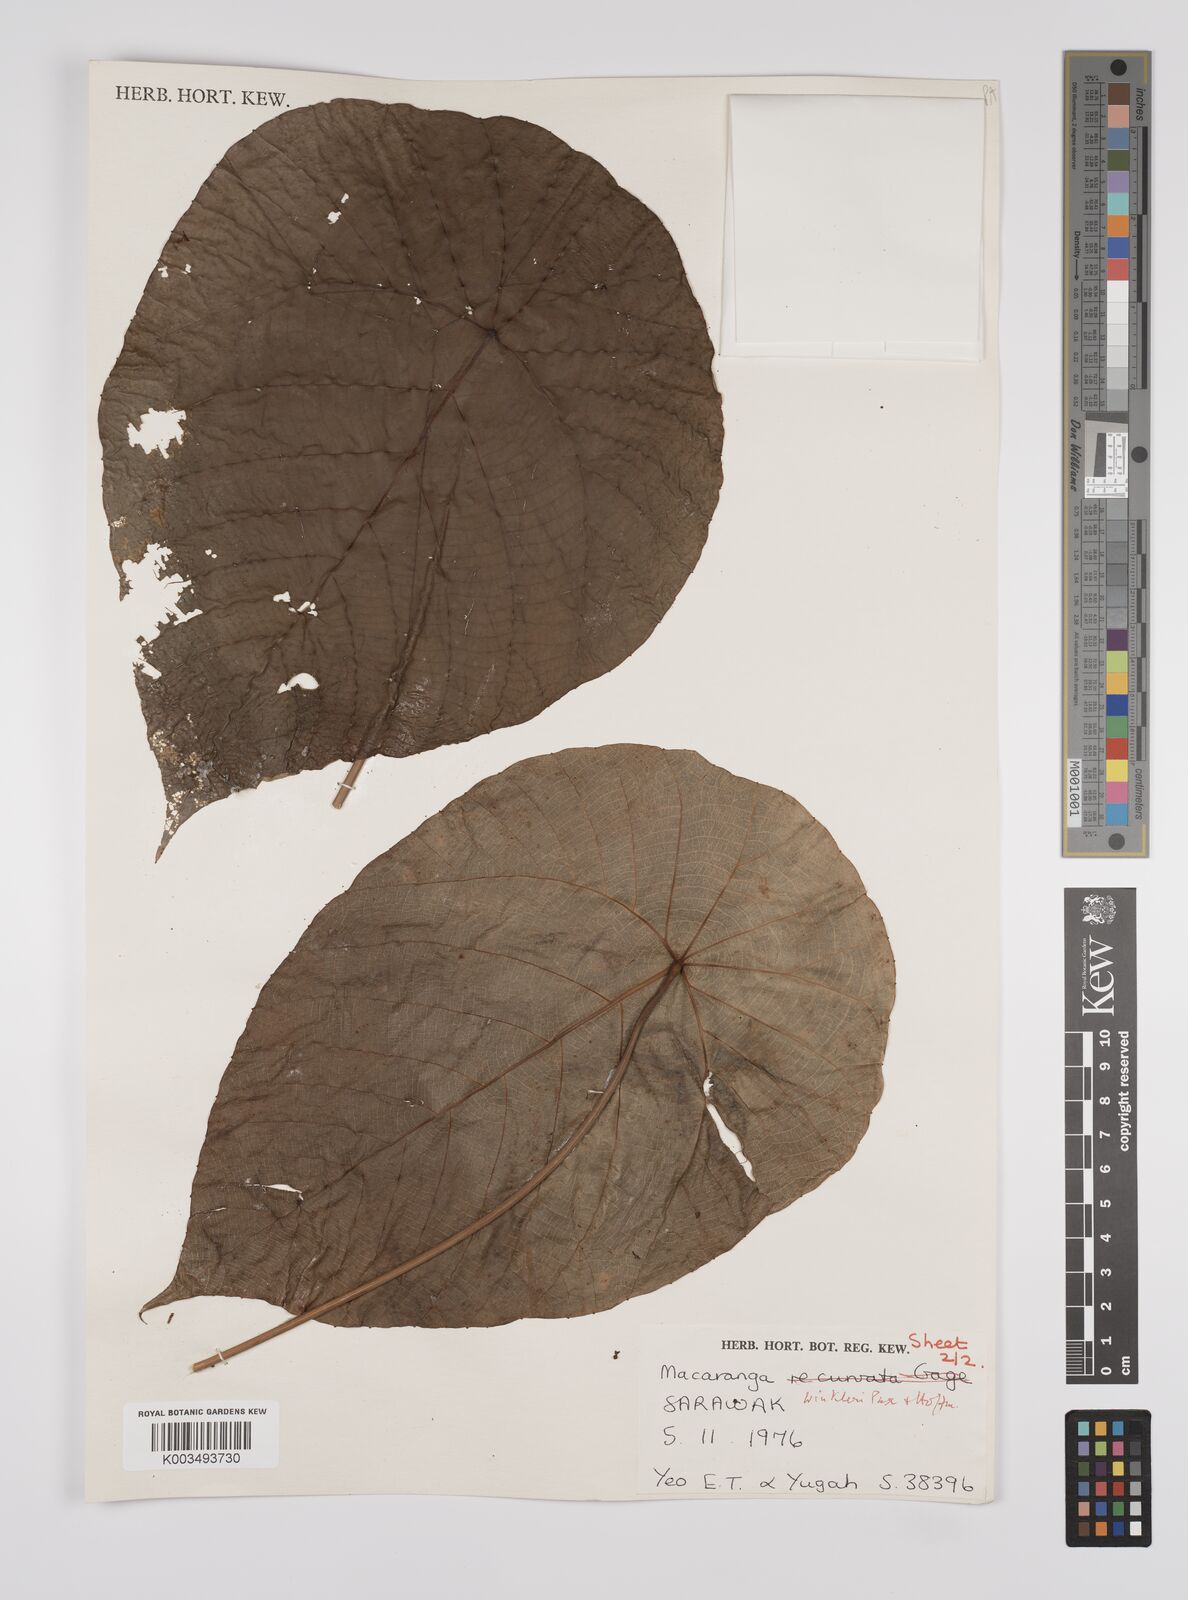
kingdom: Plantae
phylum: Tracheophyta
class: Magnoliopsida
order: Malpighiales
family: Euphorbiaceae
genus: Macaranga
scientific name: Macaranga winkleri
